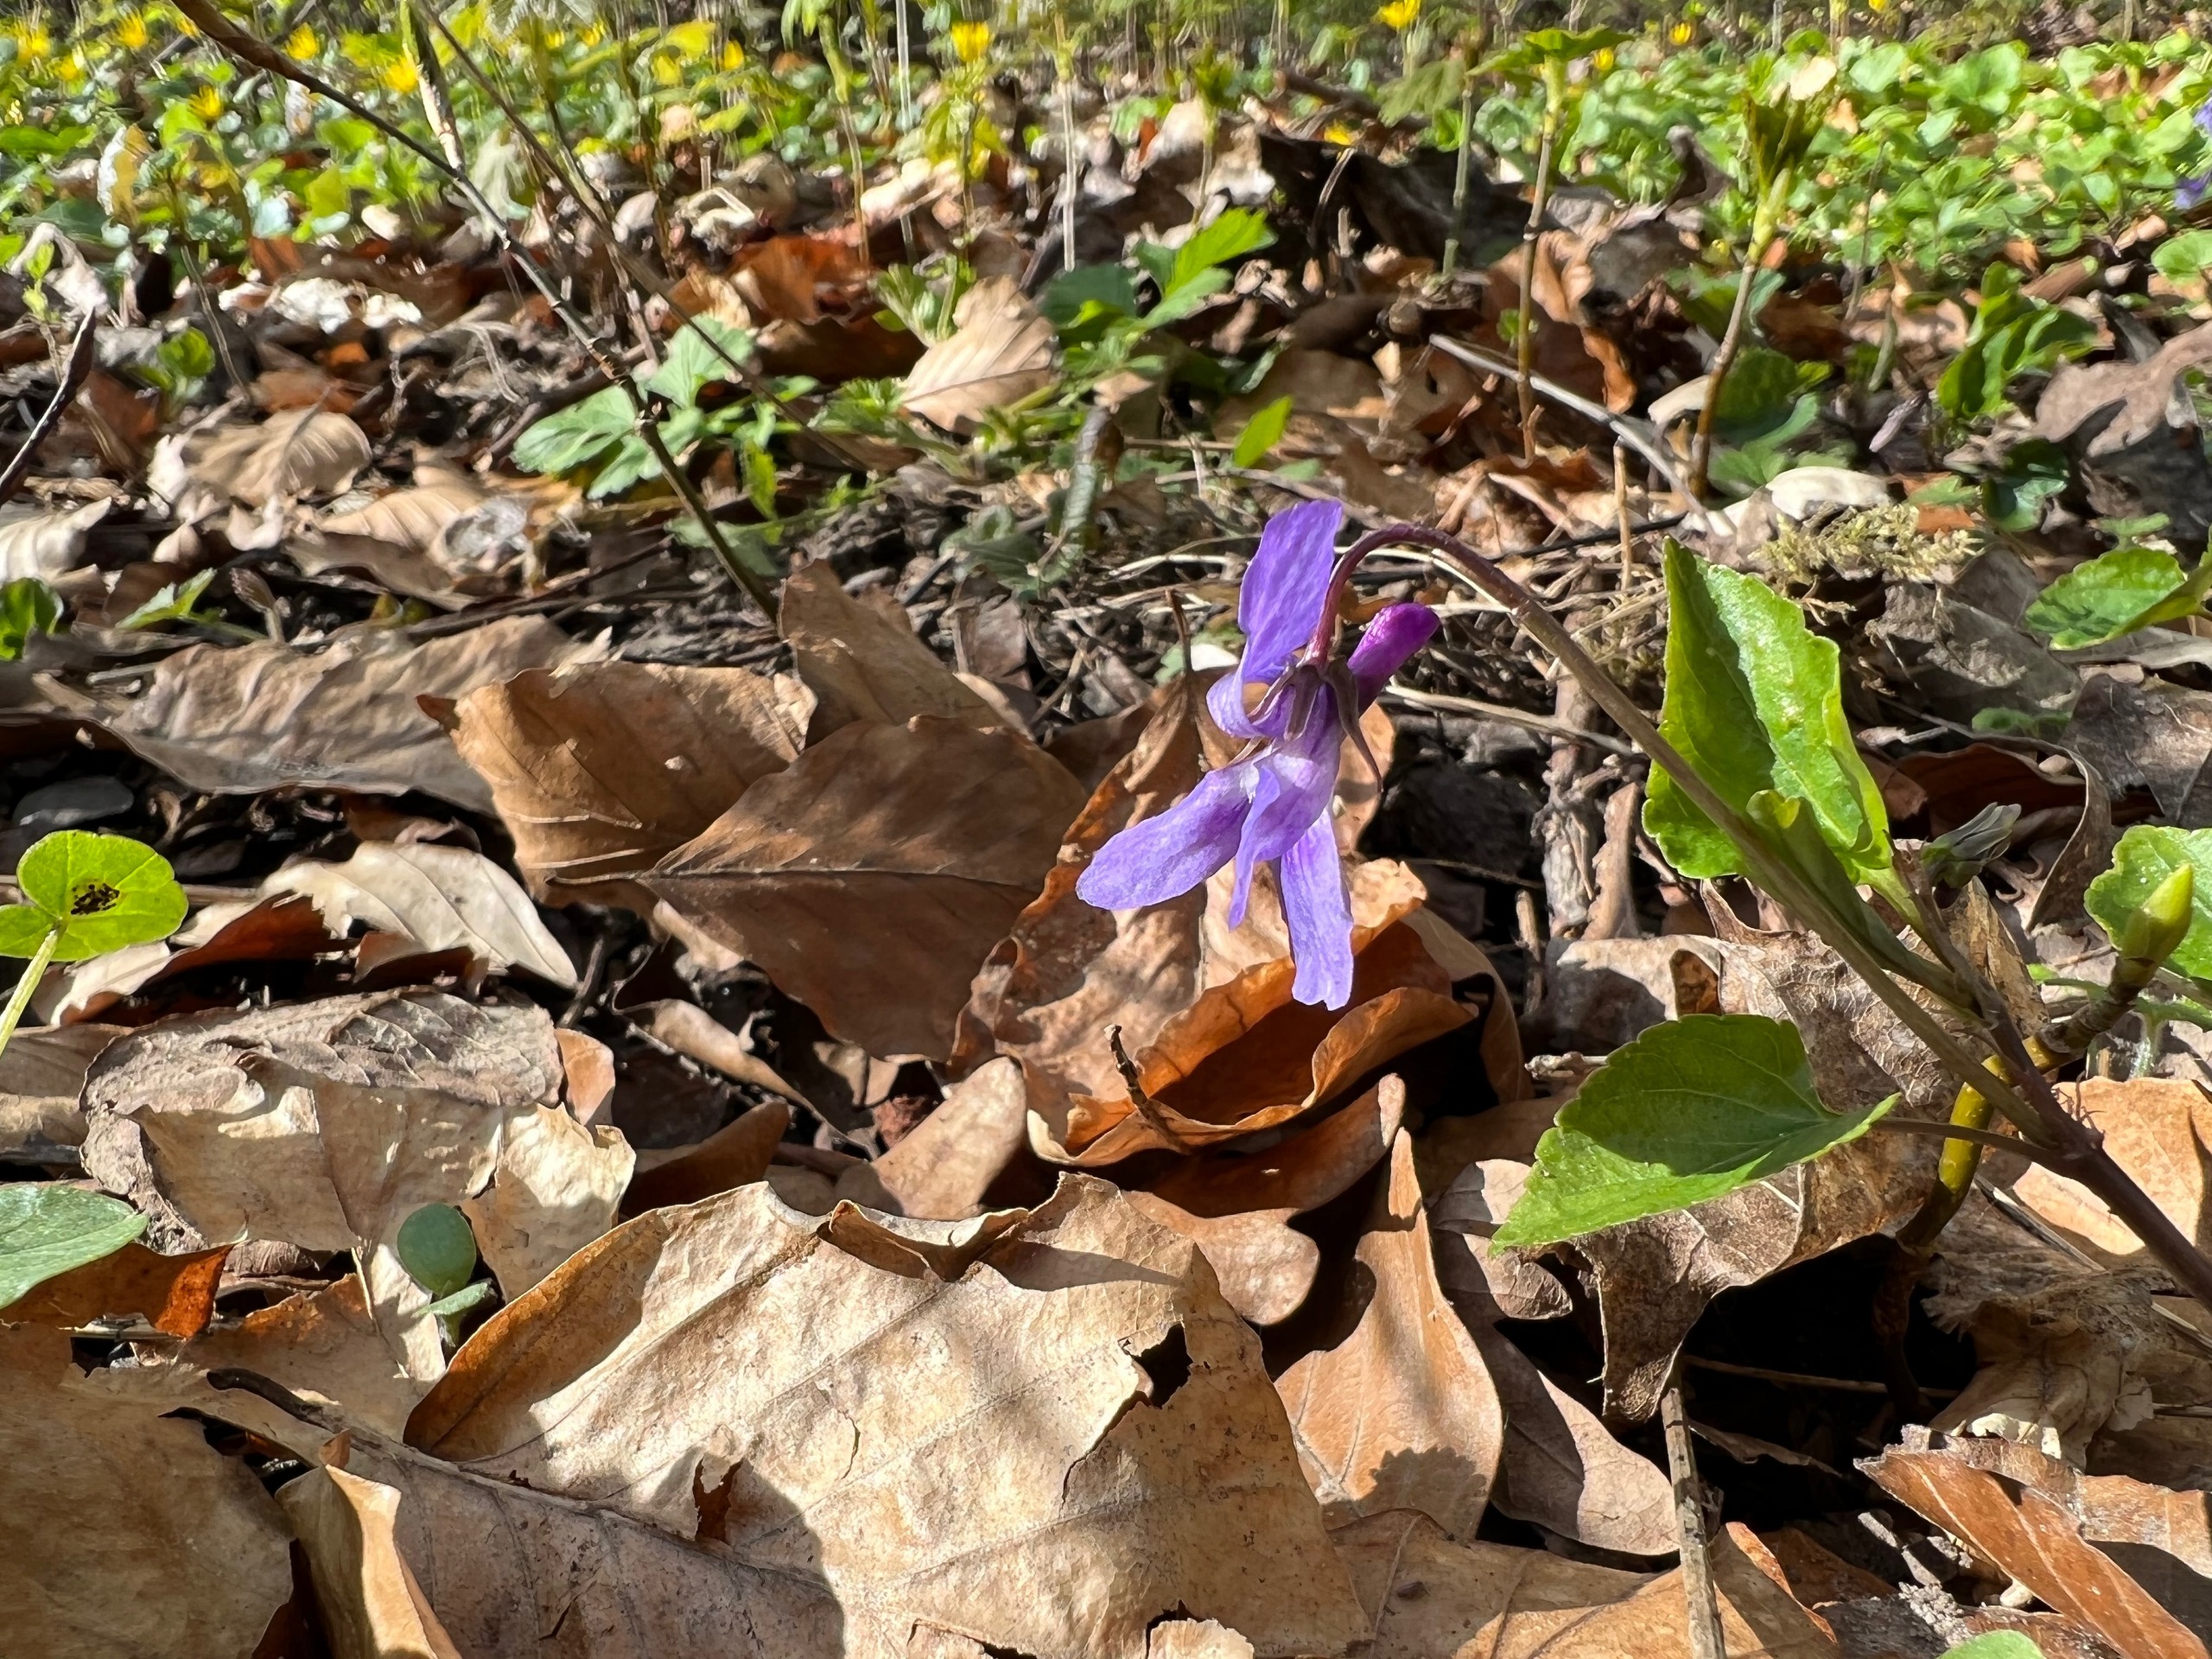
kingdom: Plantae
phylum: Tracheophyta
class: Magnoliopsida
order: Malpighiales
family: Violaceae
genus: Viola
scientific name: Viola reichenbachiana
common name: Skov-viol
